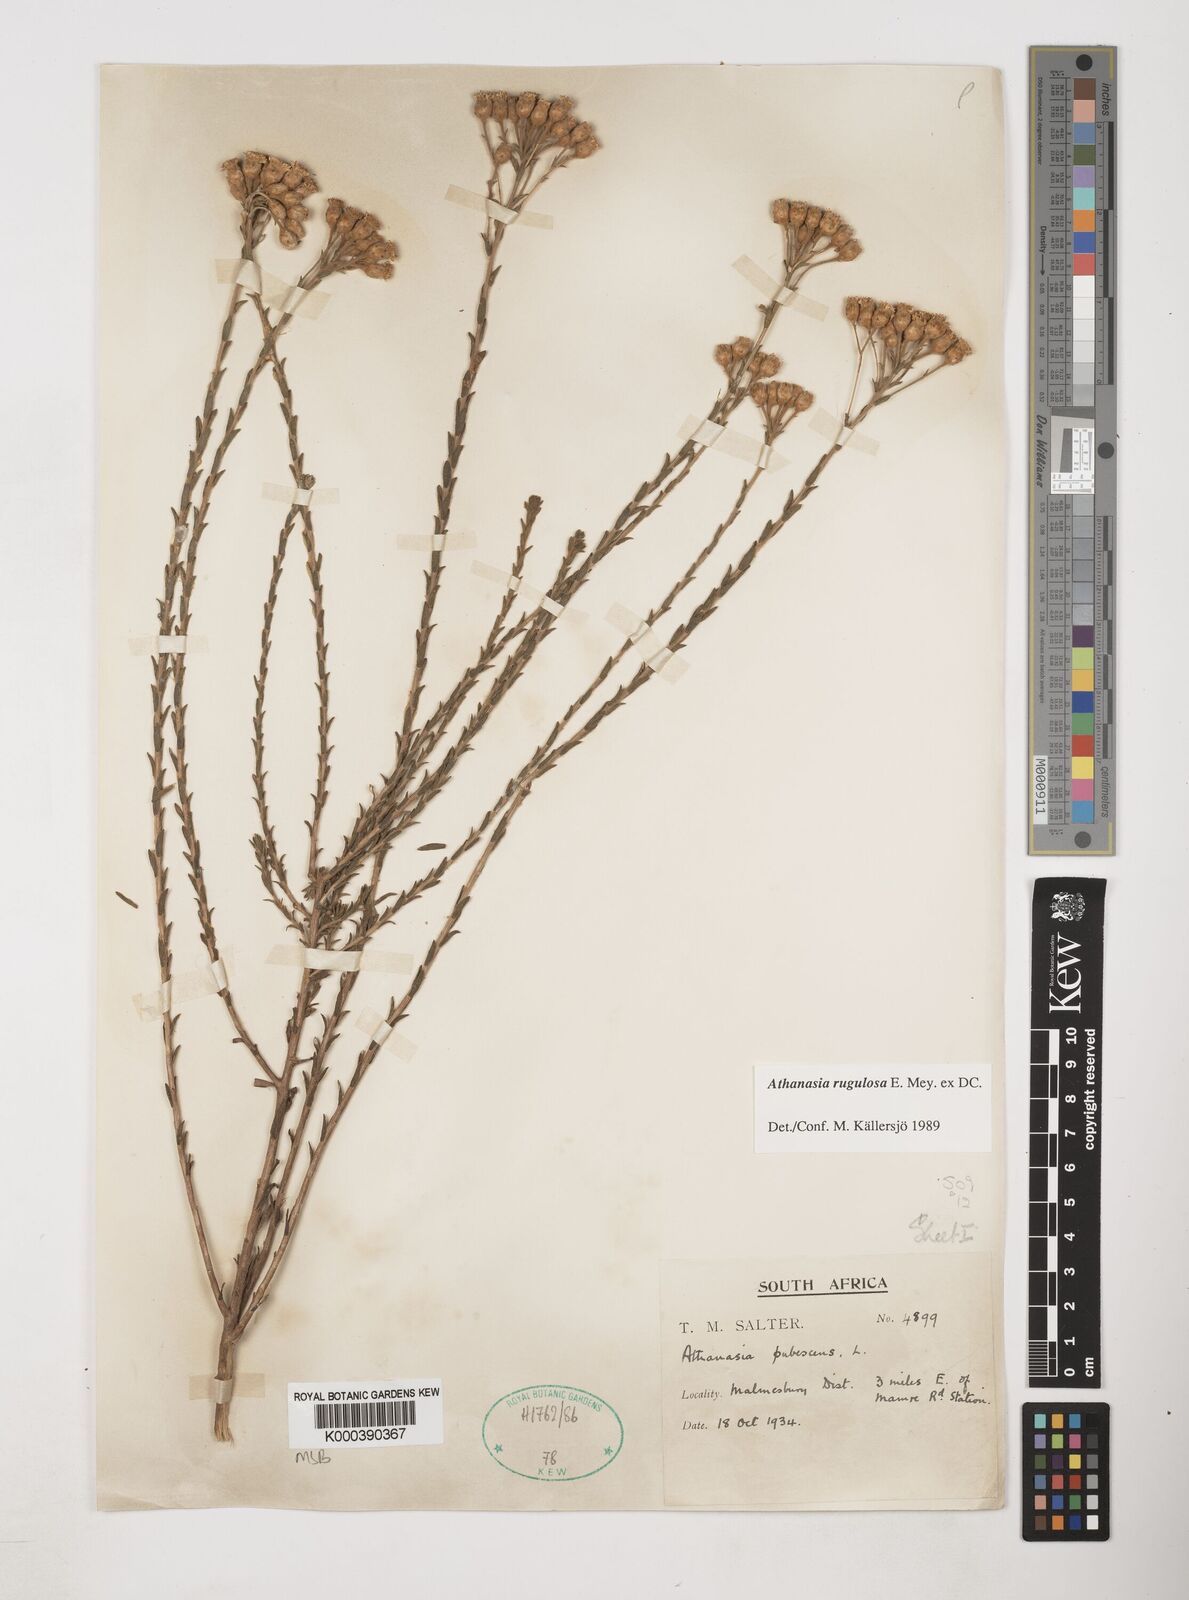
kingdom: Plantae
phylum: Tracheophyta
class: Magnoliopsida
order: Asterales
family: Asteraceae
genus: Athanasia
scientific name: Athanasia rugulosa
